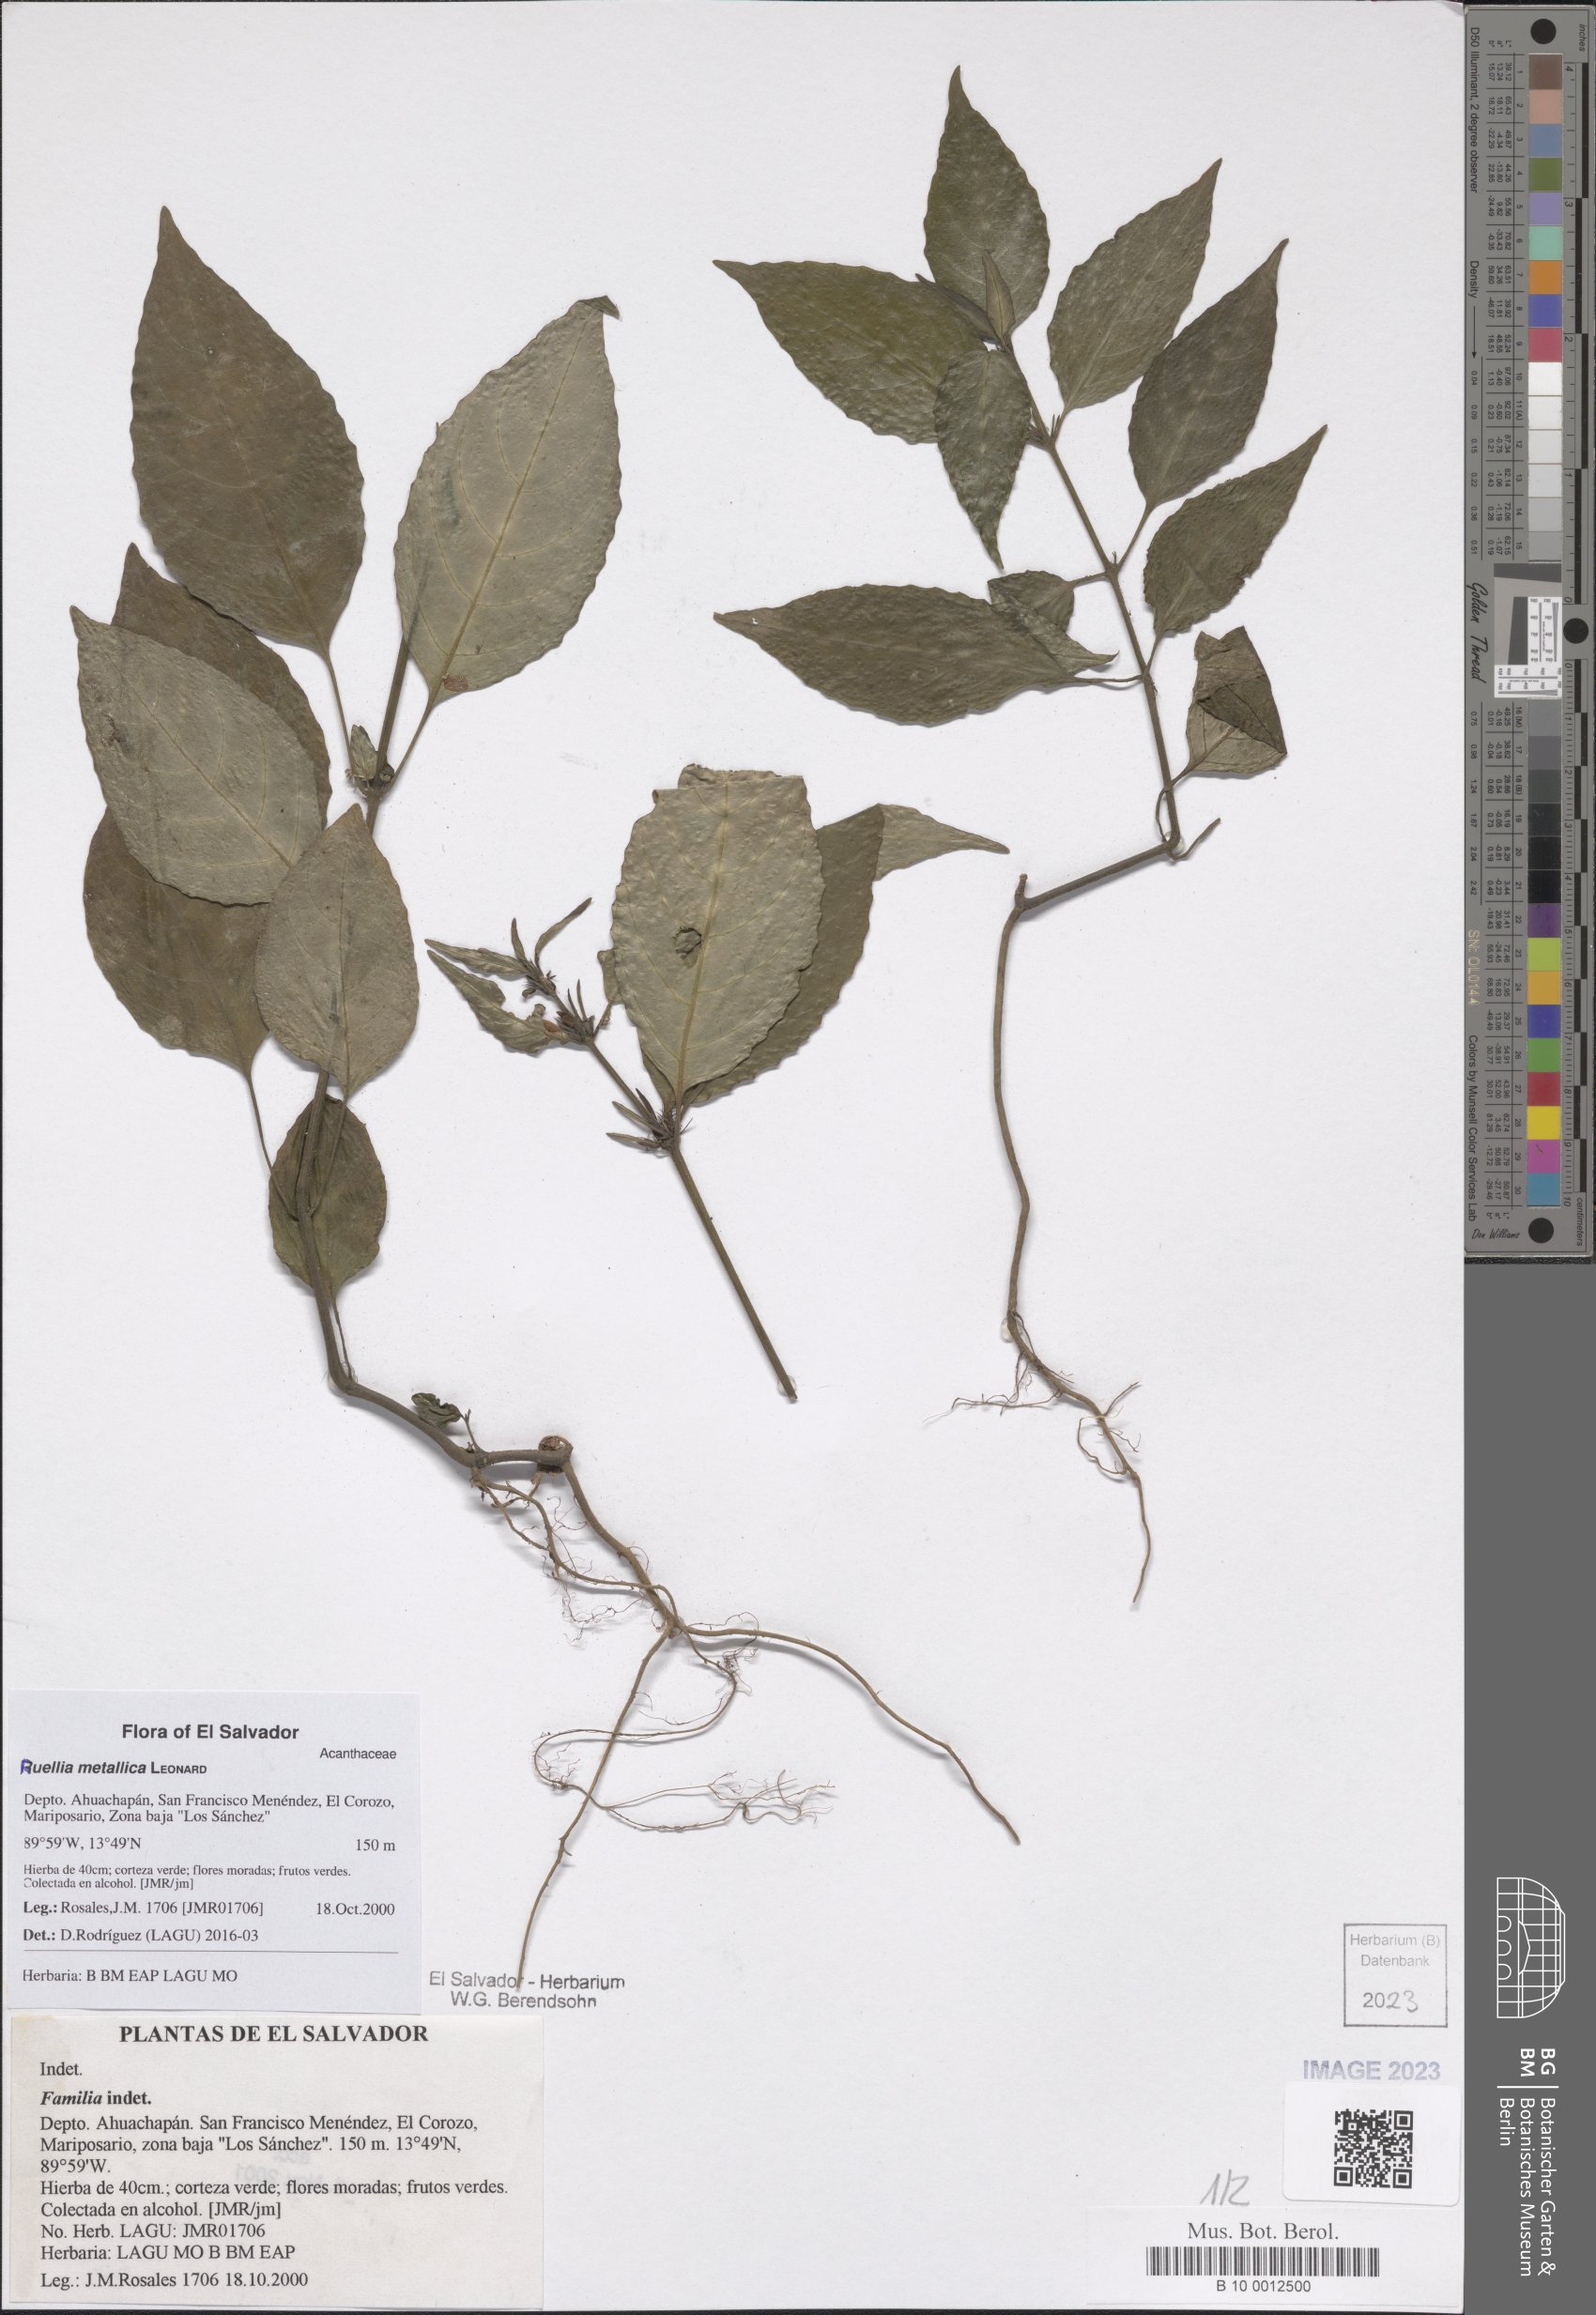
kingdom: Plantae
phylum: Tracheophyta
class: Magnoliopsida
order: Lamiales
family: Acanthaceae
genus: Ruellia
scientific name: Ruellia metallica
